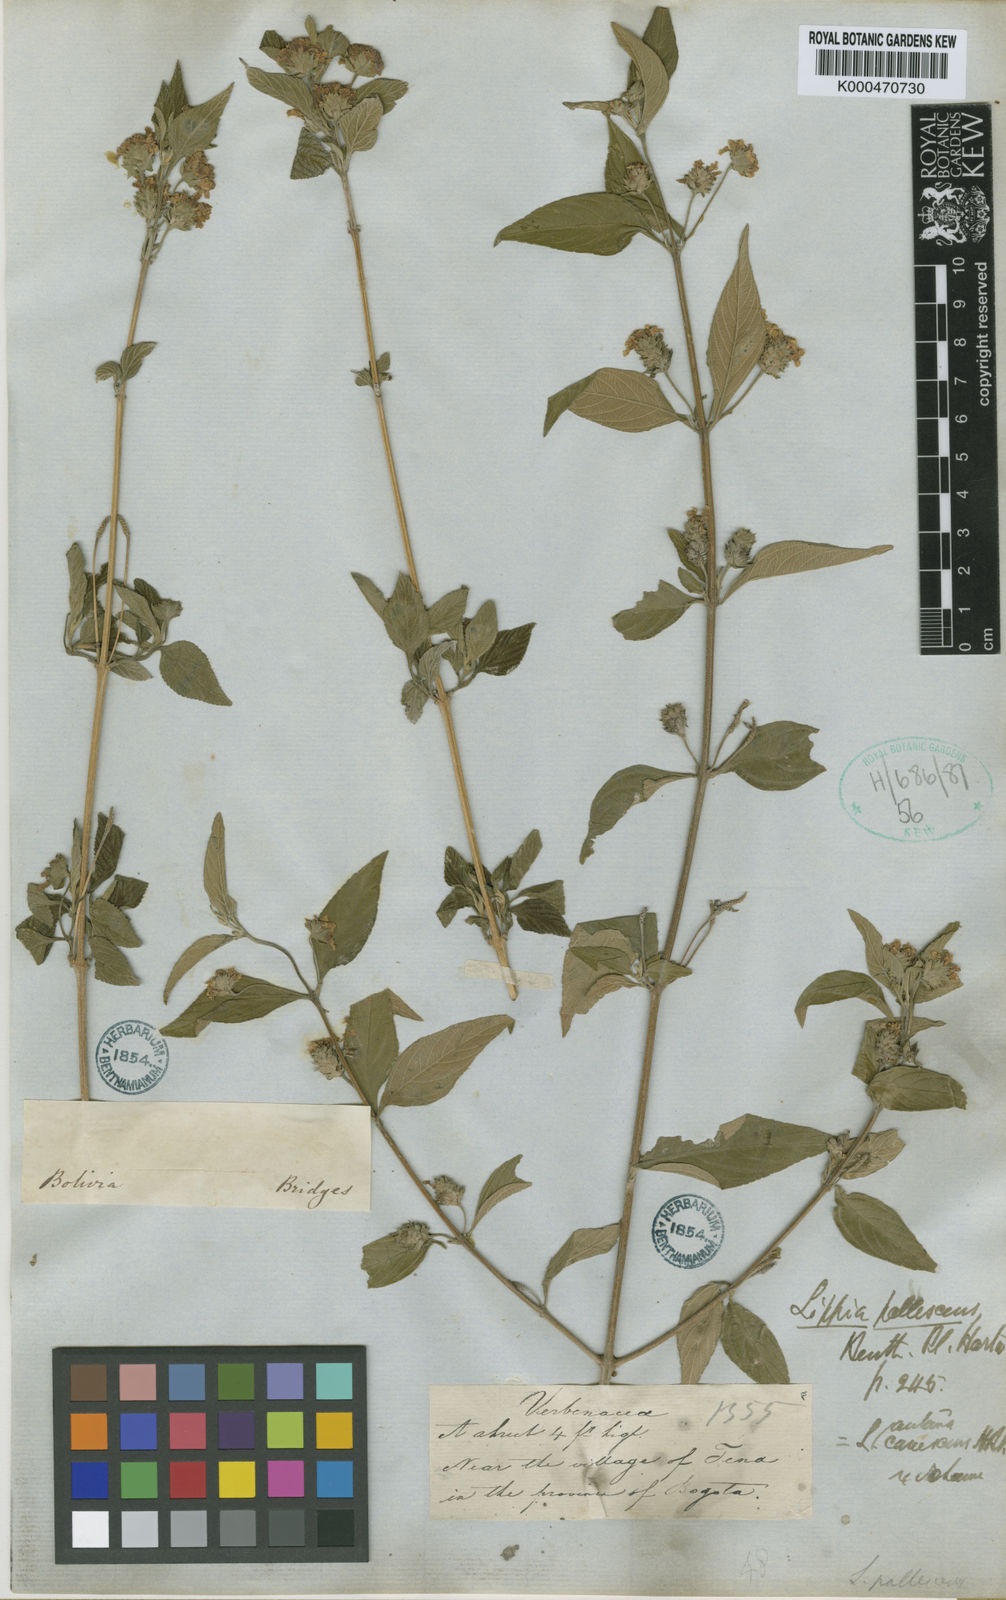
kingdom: Plantae
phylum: Tracheophyta
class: Magnoliopsida
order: Lamiales
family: Verbenaceae
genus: Lantana
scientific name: Lantana canescens
